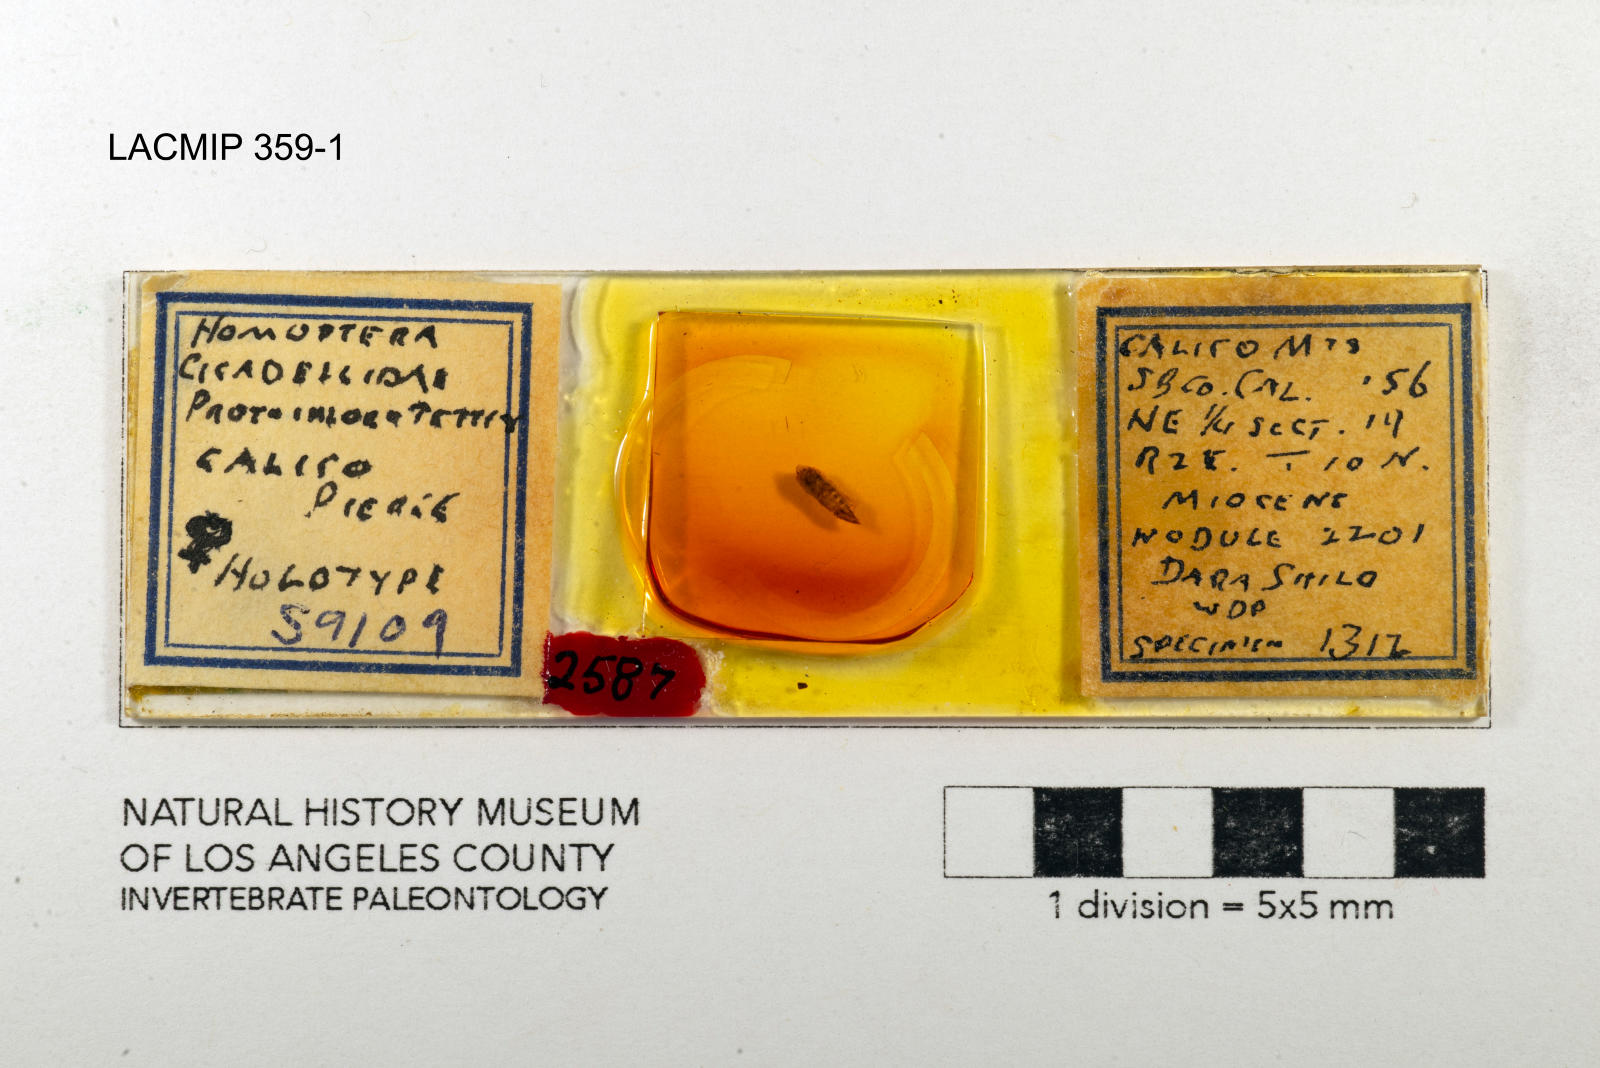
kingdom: Animalia
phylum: Arthropoda
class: Insecta
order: Hemiptera
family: Cicadellidae
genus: Protochlorotettix
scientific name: Protochlorotettix calico
